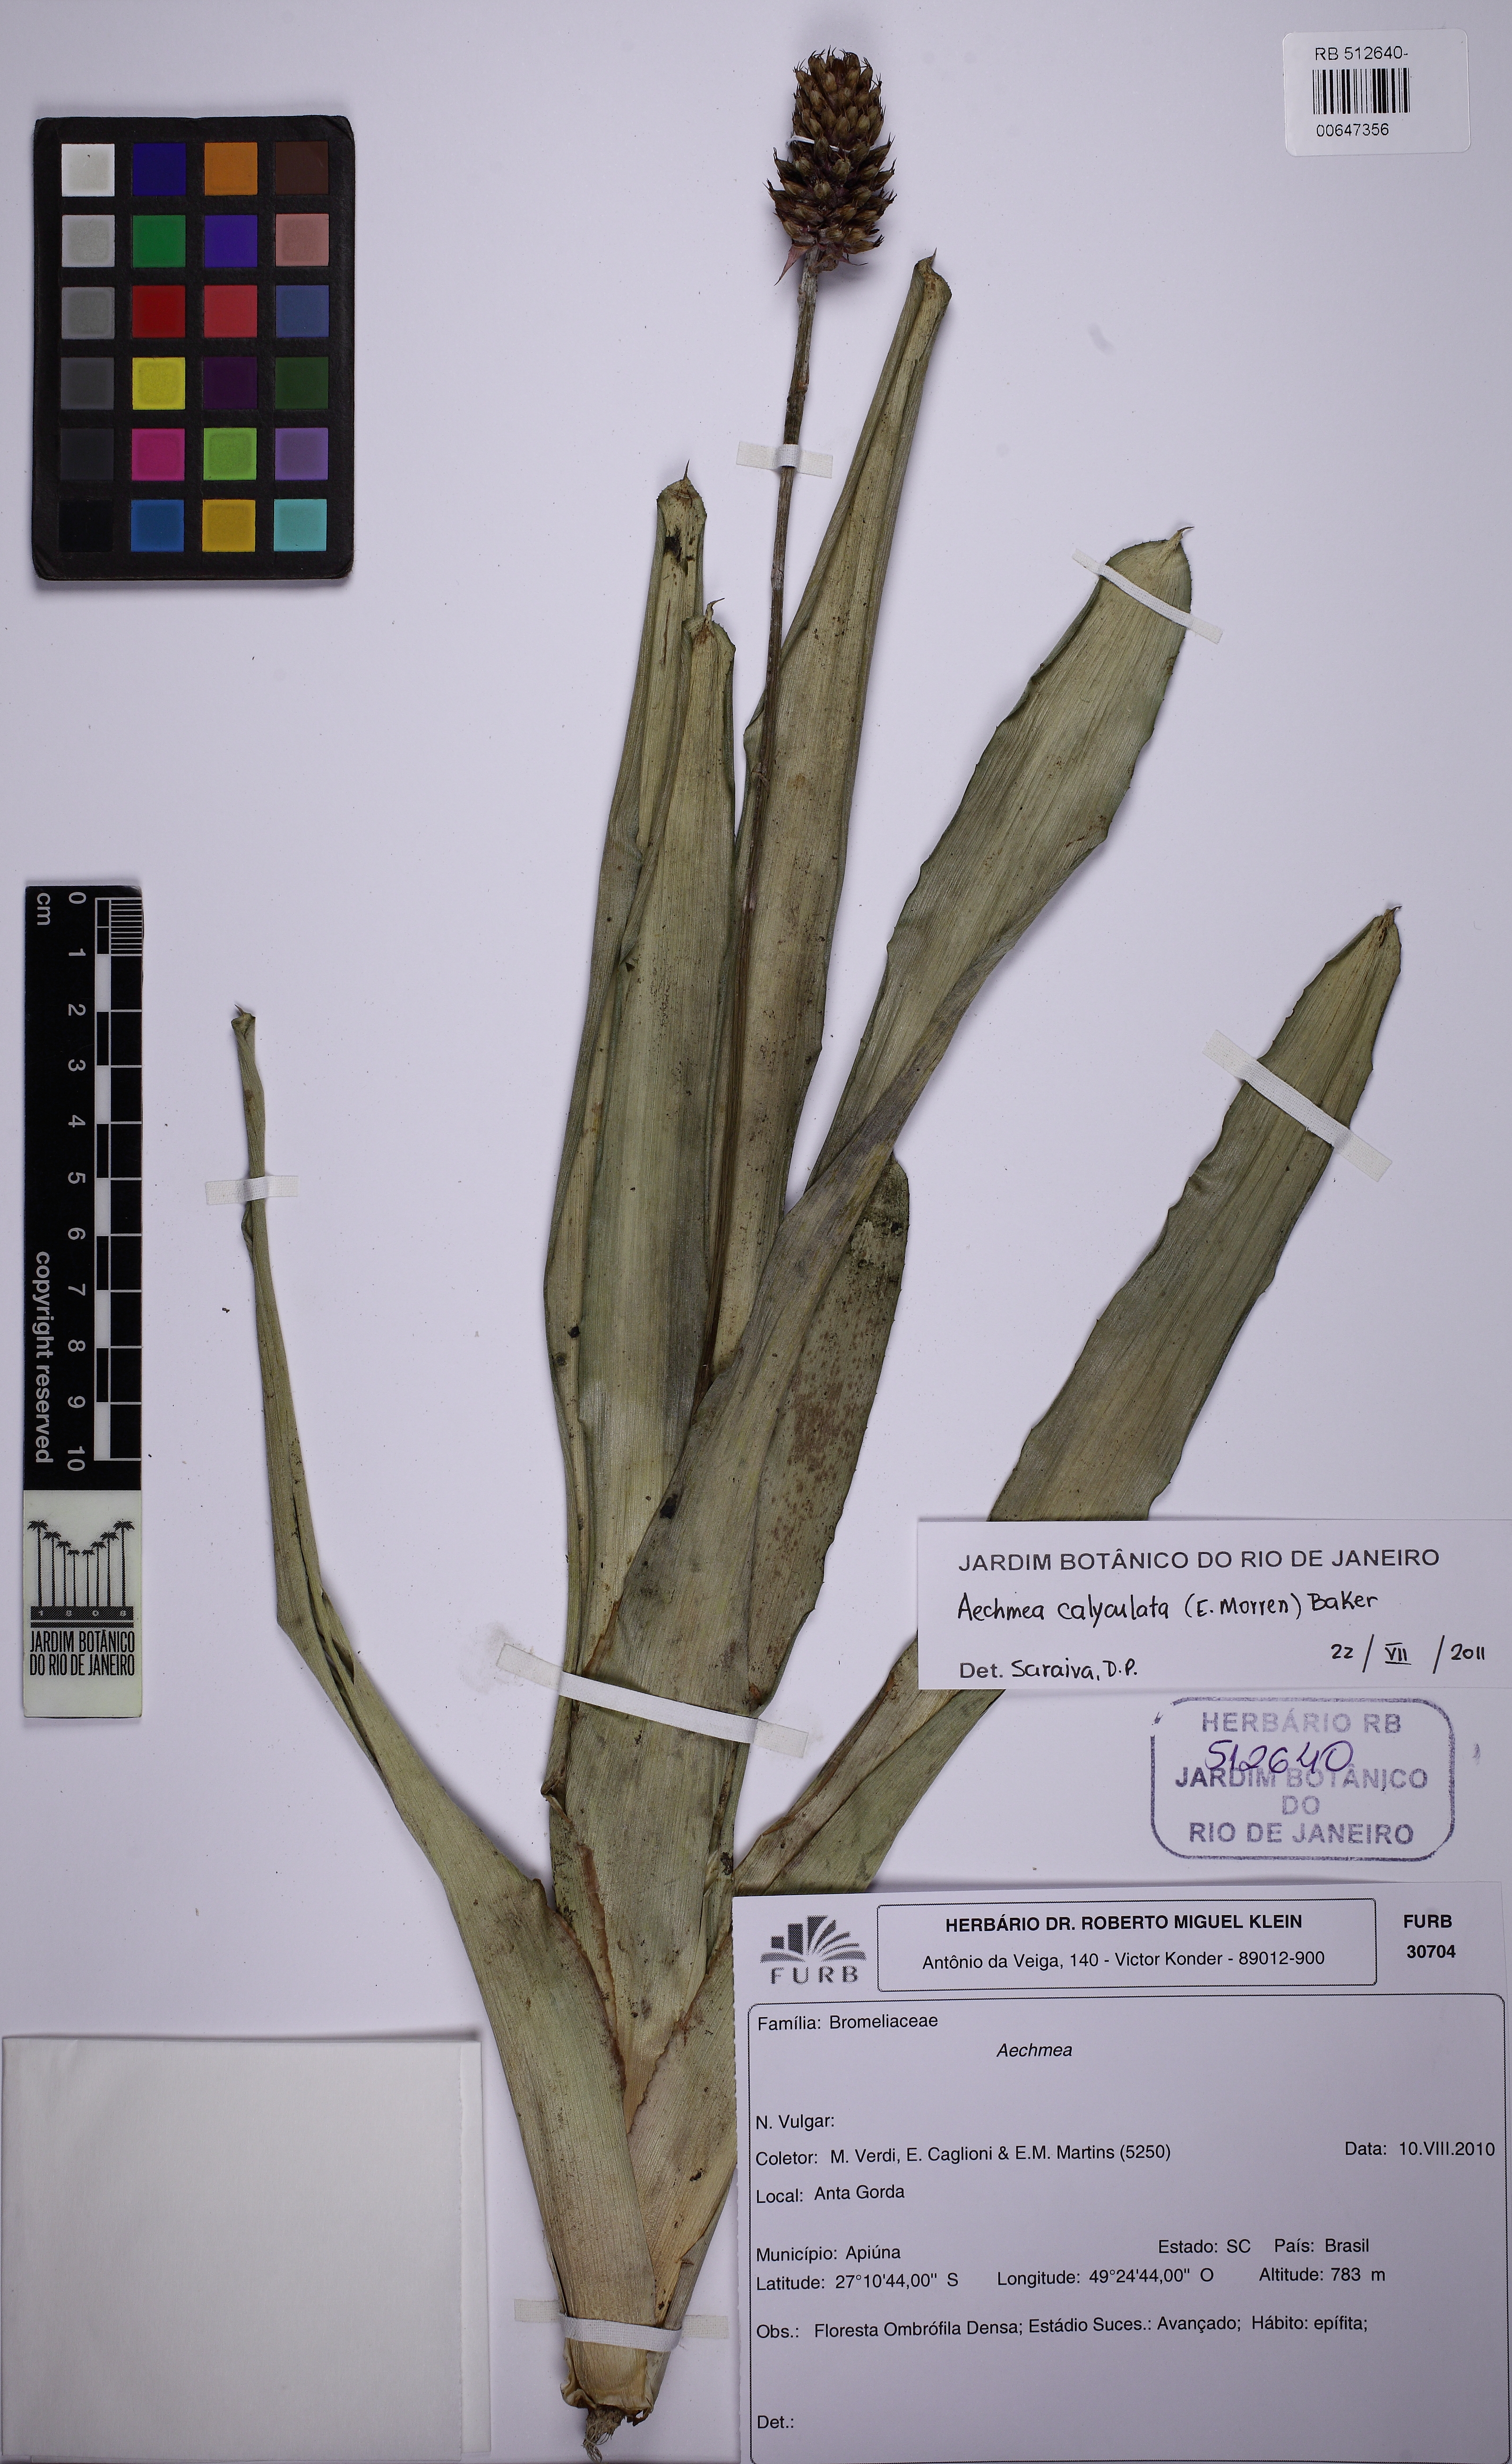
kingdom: Plantae
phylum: Tracheophyta
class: Liliopsida
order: Poales
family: Bromeliaceae
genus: Aechmea
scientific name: Aechmea calyculata
